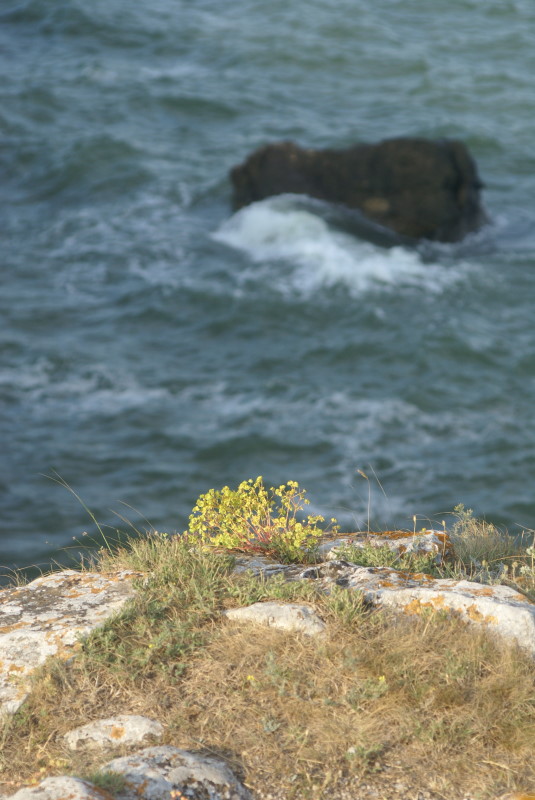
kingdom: Plantae
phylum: Tracheophyta
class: Magnoliopsida
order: Malpighiales
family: Euphorbiaceae
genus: Euphorbia
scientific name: Euphorbia petrophila
